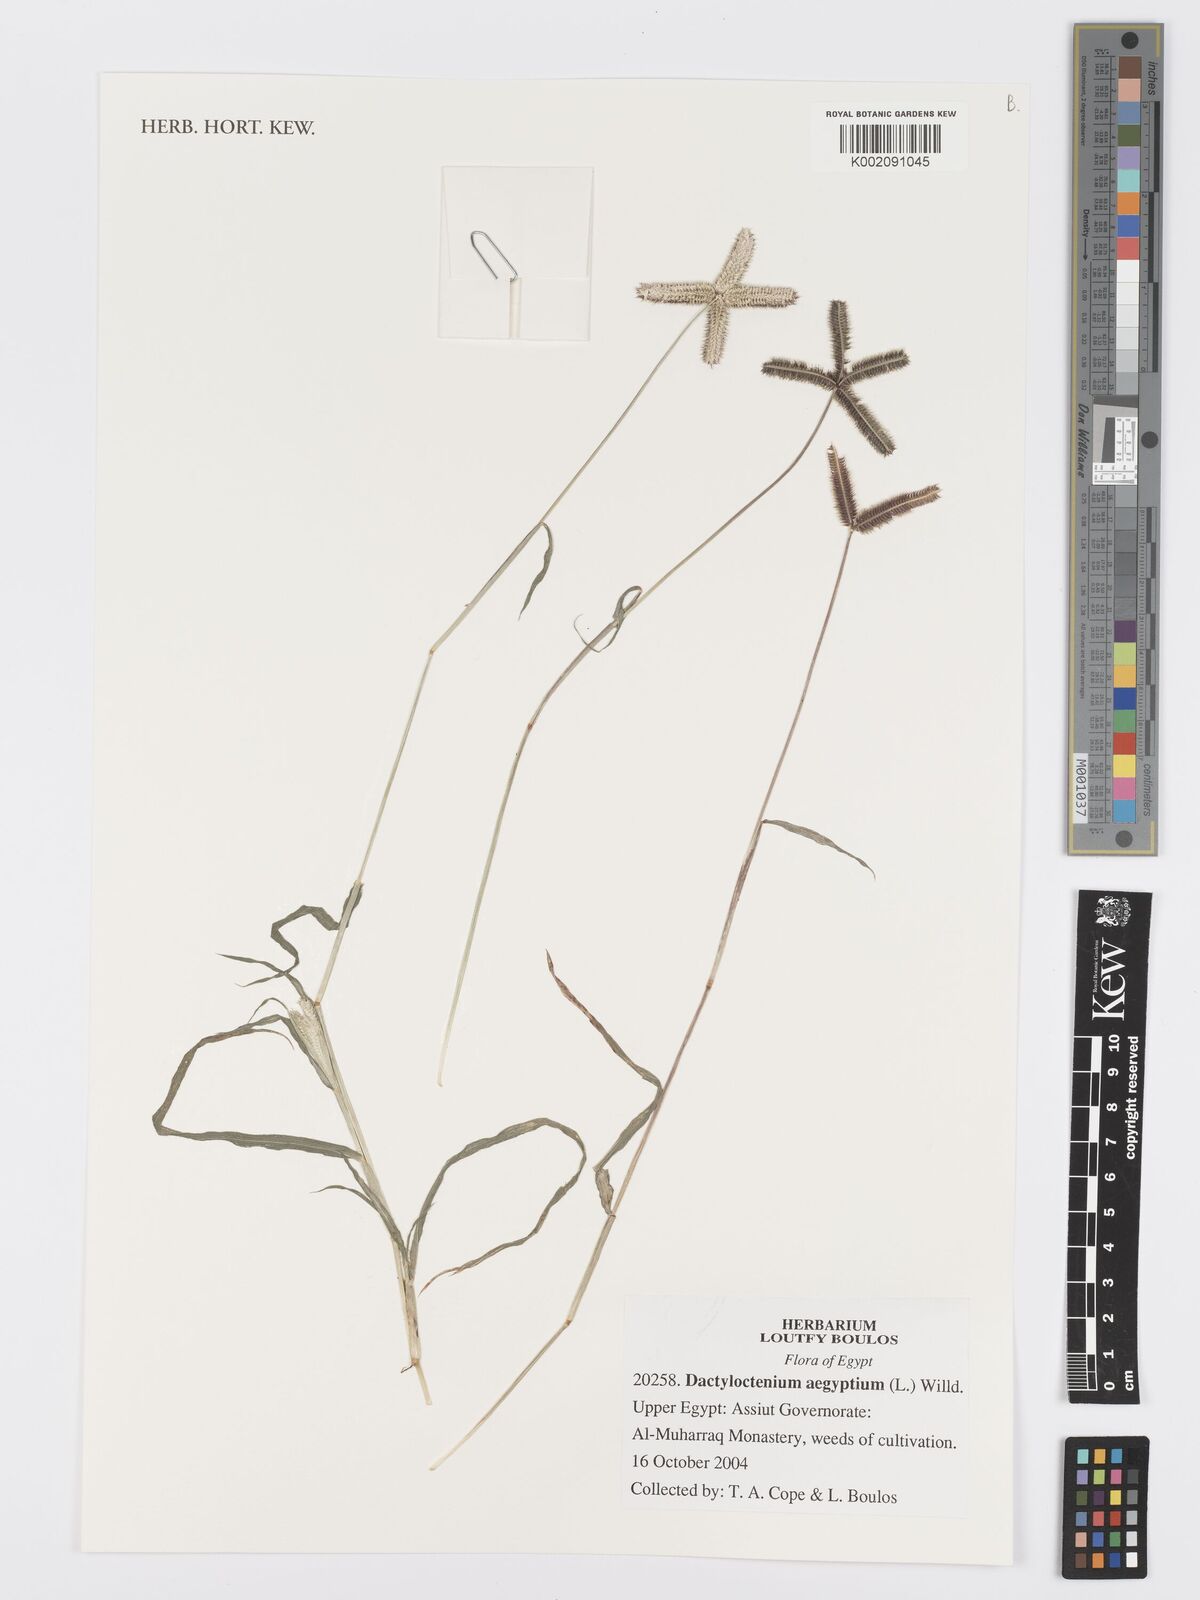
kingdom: Plantae
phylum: Tracheophyta
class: Liliopsida
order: Poales
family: Poaceae
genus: Dactyloctenium
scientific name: Dactyloctenium aegyptium
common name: Egyptian grass
